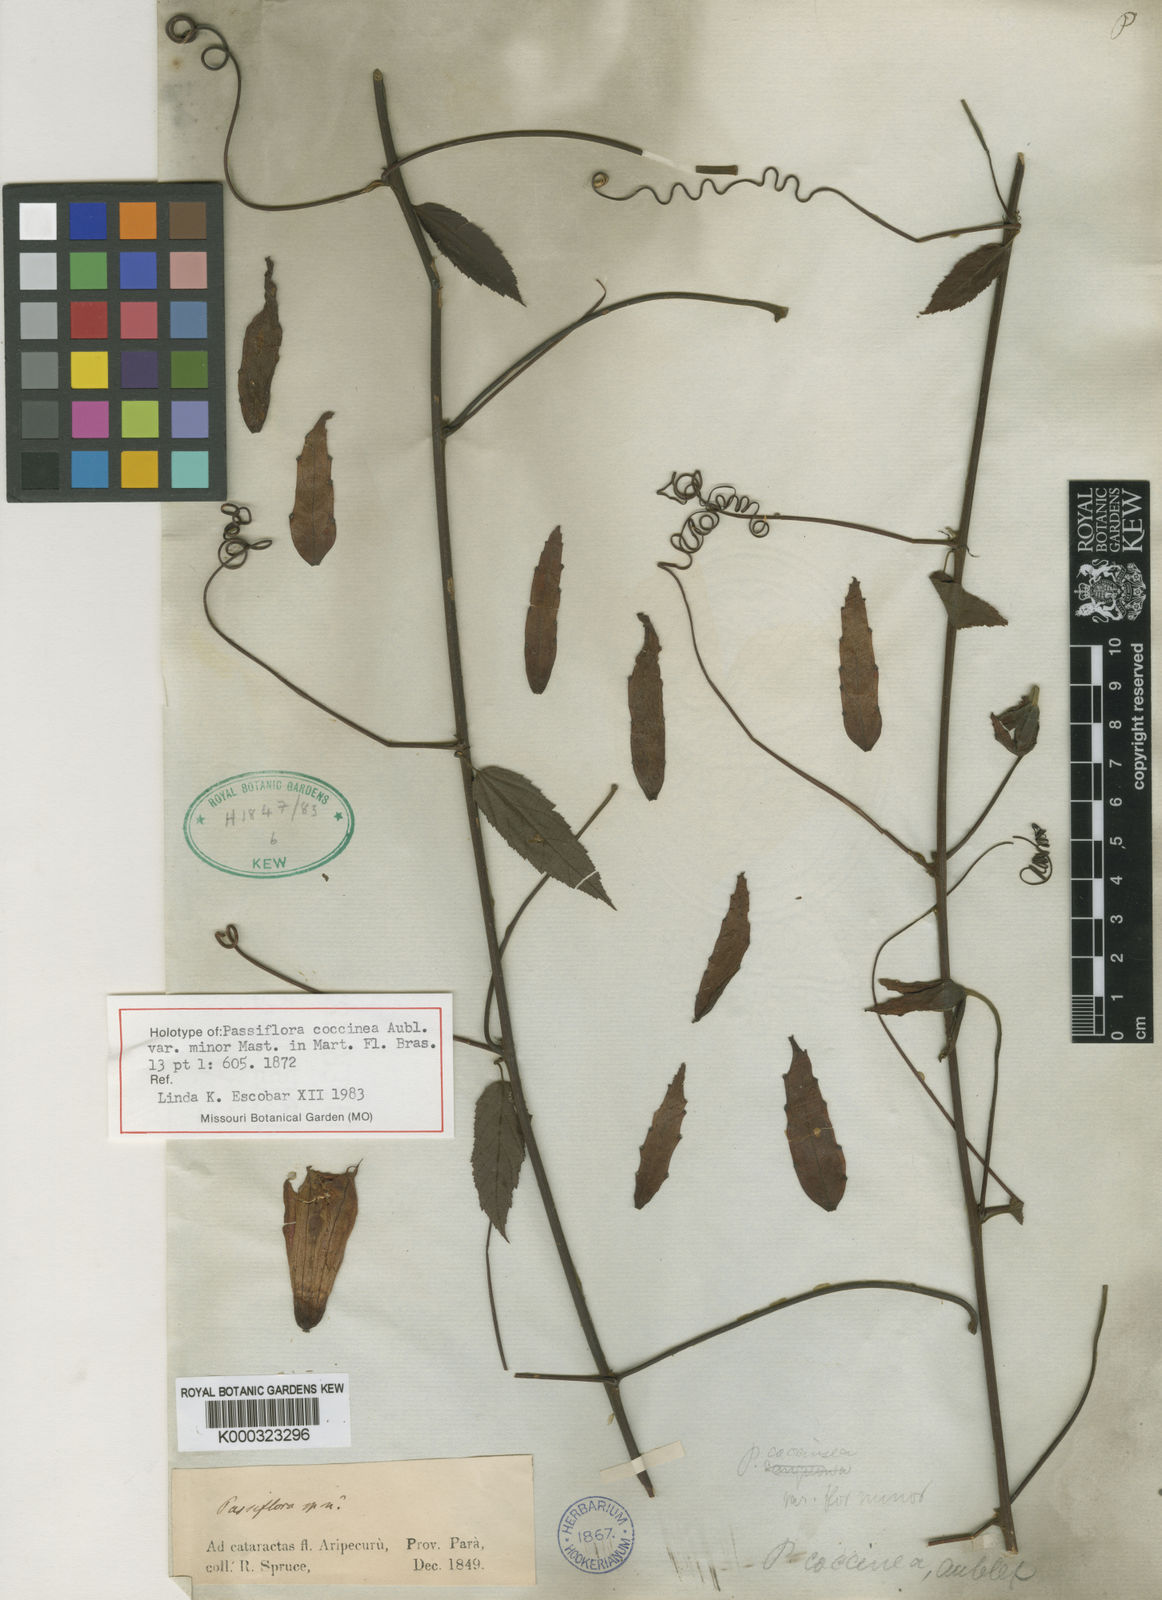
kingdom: Plantae
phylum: Tracheophyta
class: Magnoliopsida
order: Malpighiales
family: Passifloraceae
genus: Passiflora
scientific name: Passiflora coccinea
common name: Scarlet passionflower
